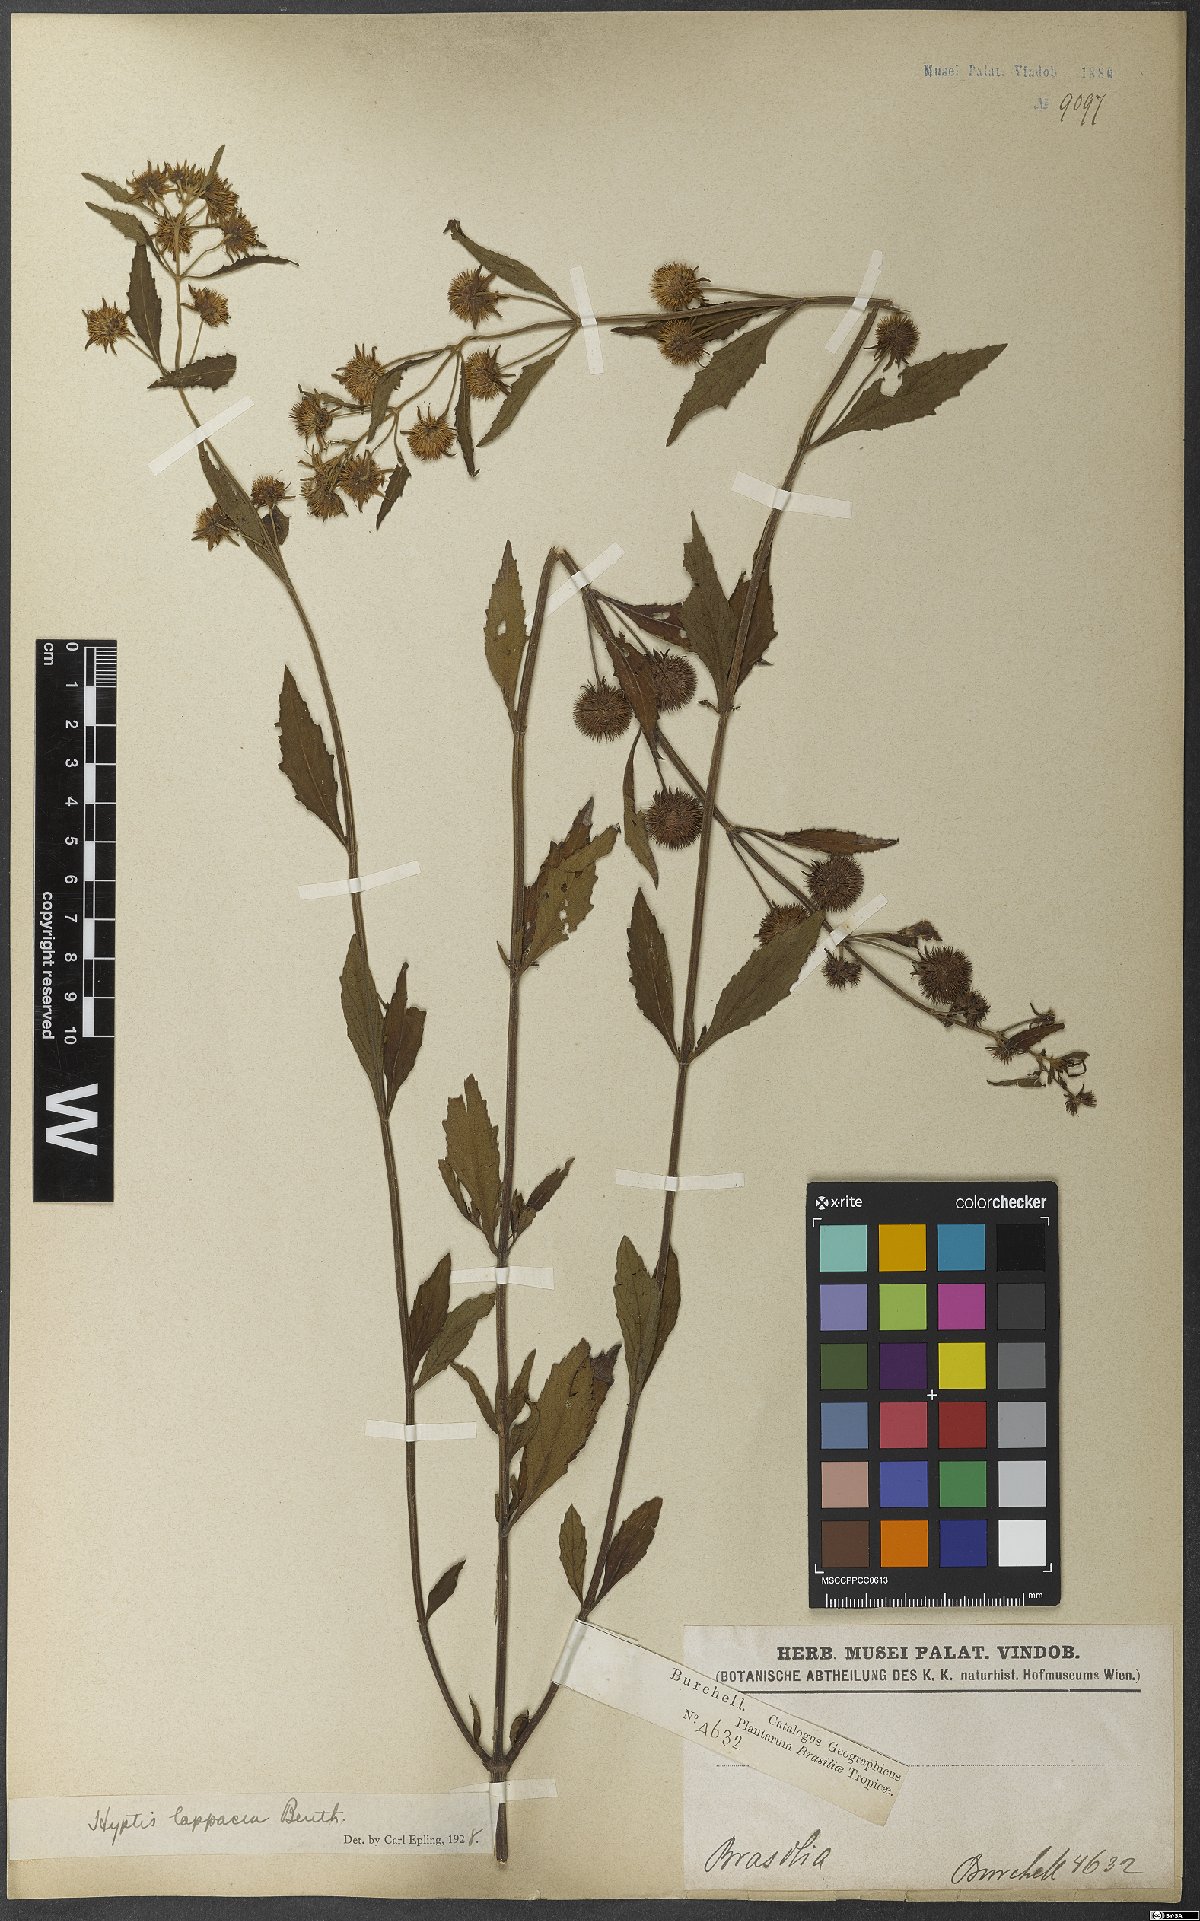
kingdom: Plantae
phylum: Tracheophyta
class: Magnoliopsida
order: Lamiales
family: Lamiaceae
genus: Hyptis
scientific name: Hyptis lappacea
